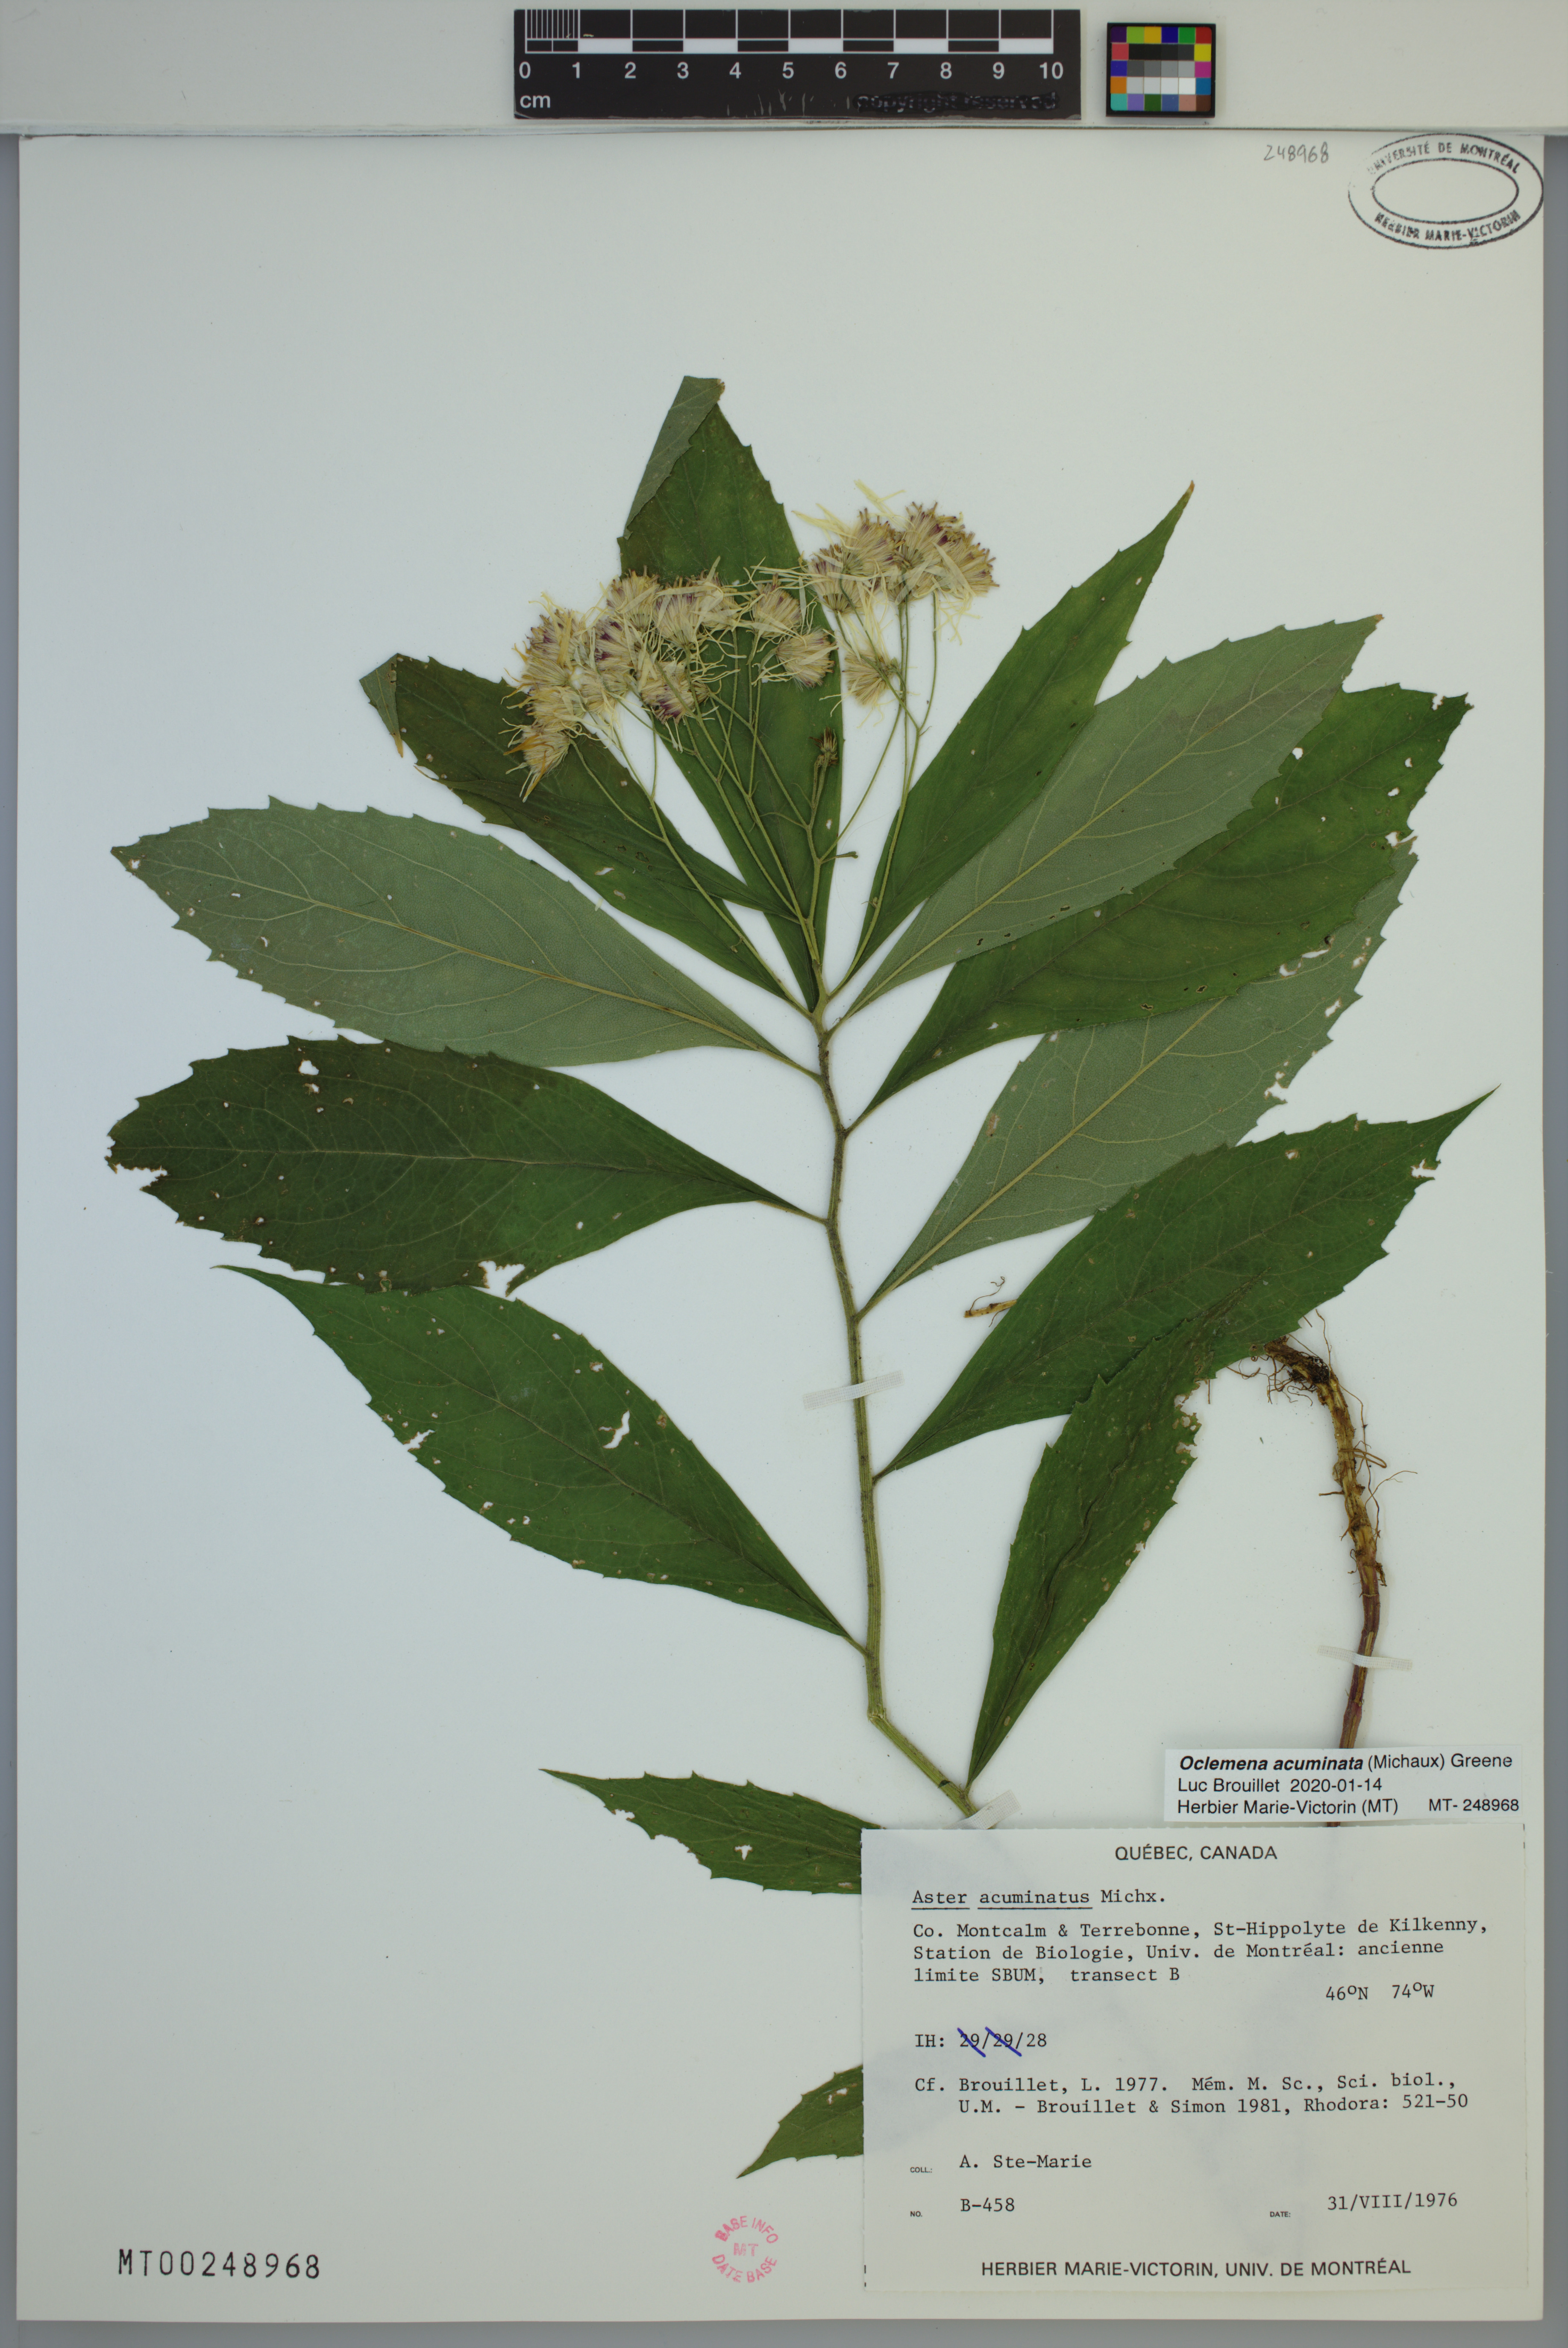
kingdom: Plantae
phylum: Tracheophyta
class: Magnoliopsida
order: Asterales
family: Asteraceae
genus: Oclemena
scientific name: Oclemena acuminata
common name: Mountain aster
